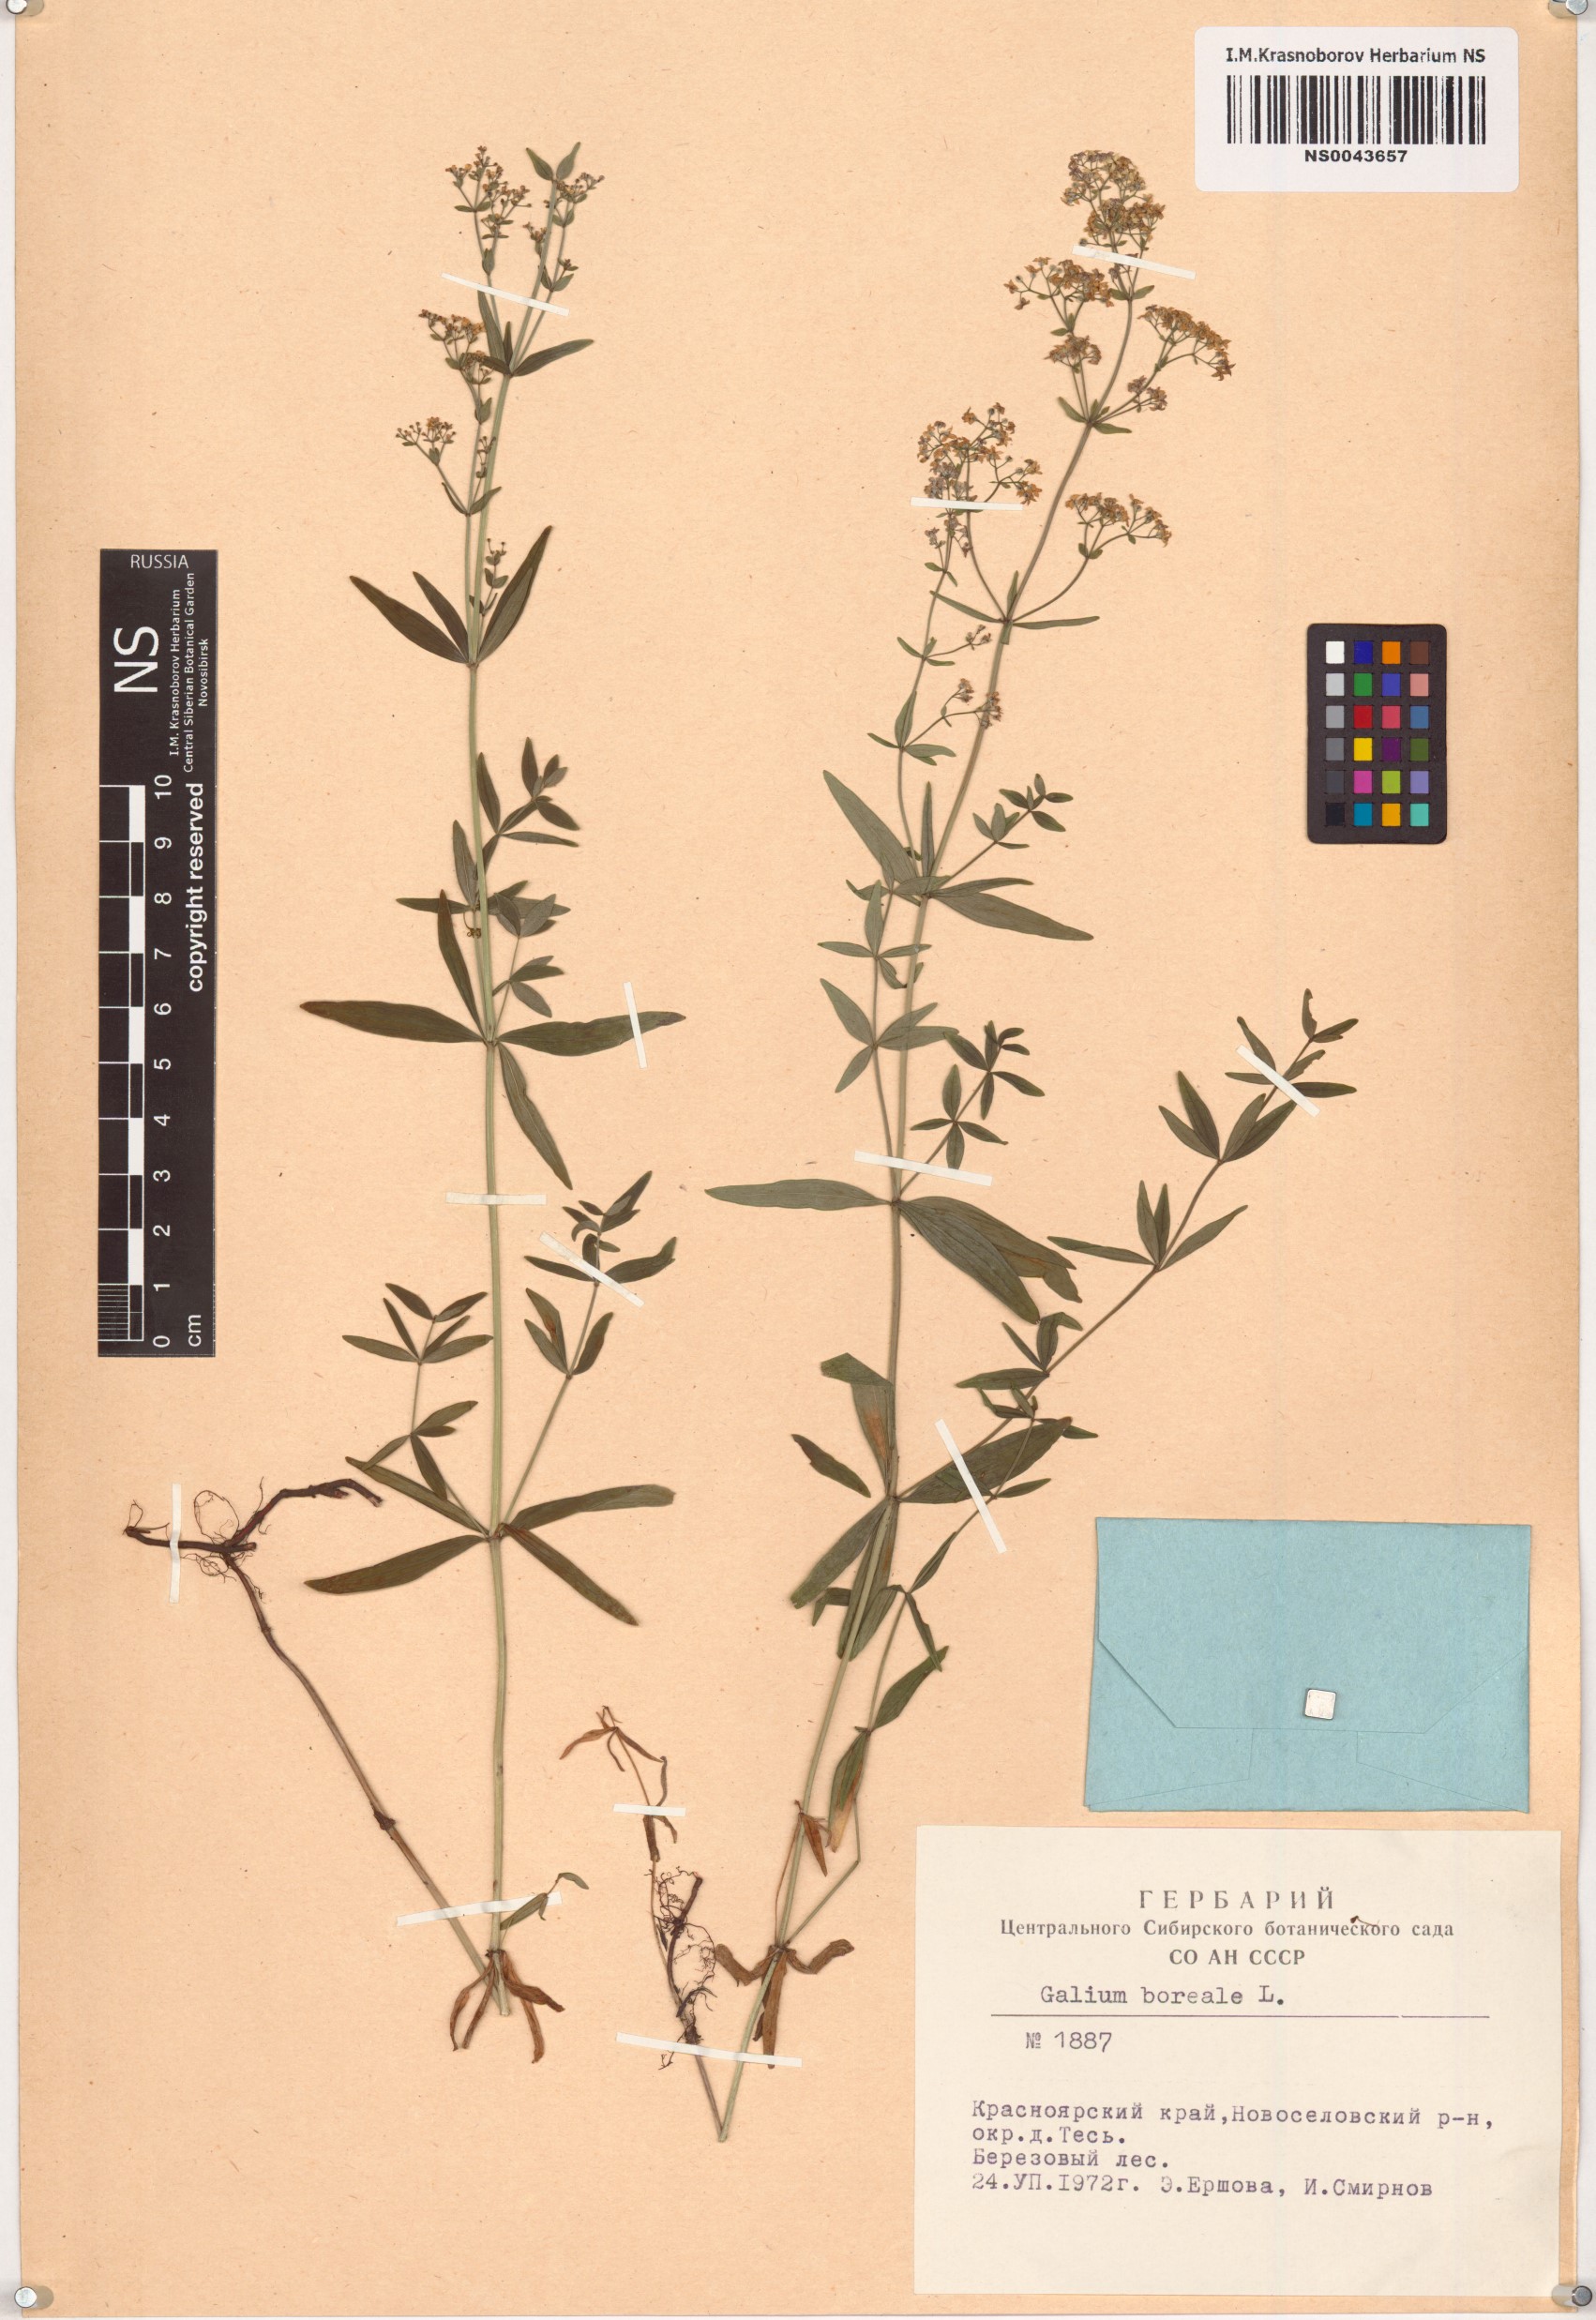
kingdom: Plantae
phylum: Tracheophyta
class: Magnoliopsida
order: Gentianales
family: Rubiaceae
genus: Galium
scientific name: Galium boreale
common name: Northern bedstraw
